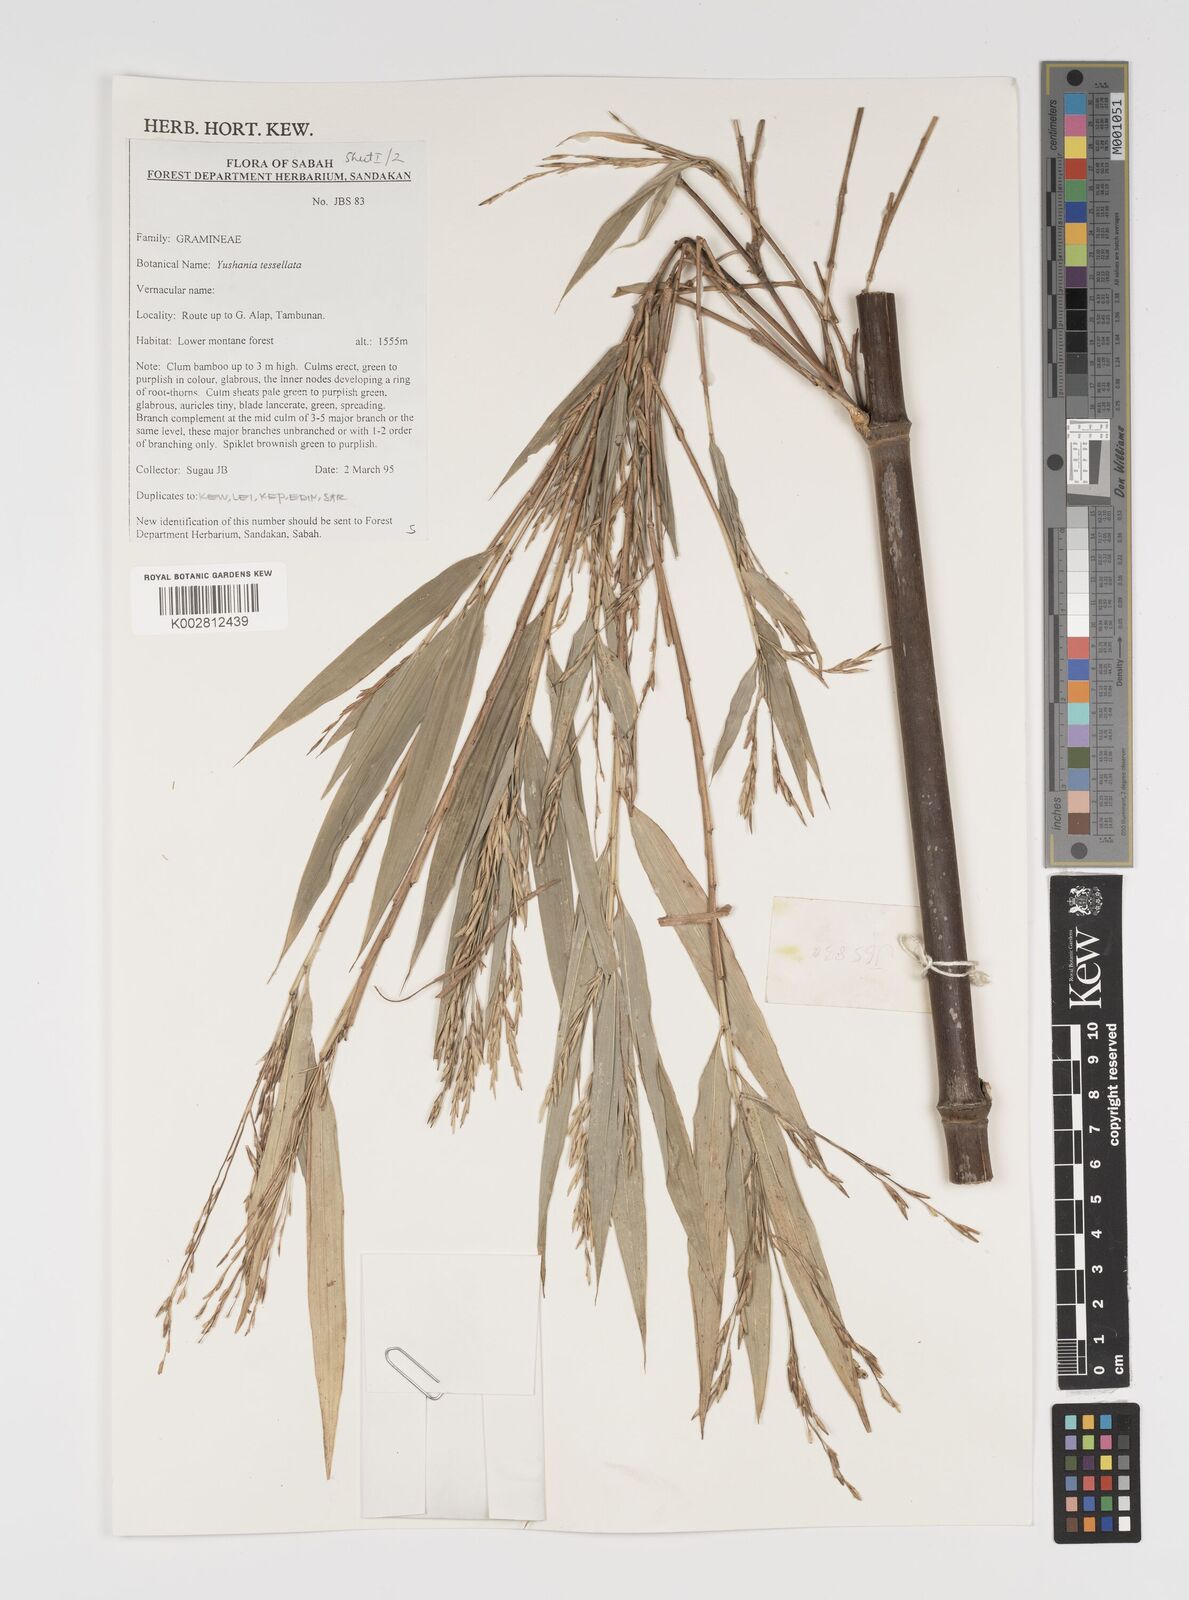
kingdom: Plantae
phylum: Tracheophyta
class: Liliopsida
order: Poales
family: Poaceae
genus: Yushania
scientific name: Yushania tessellata
